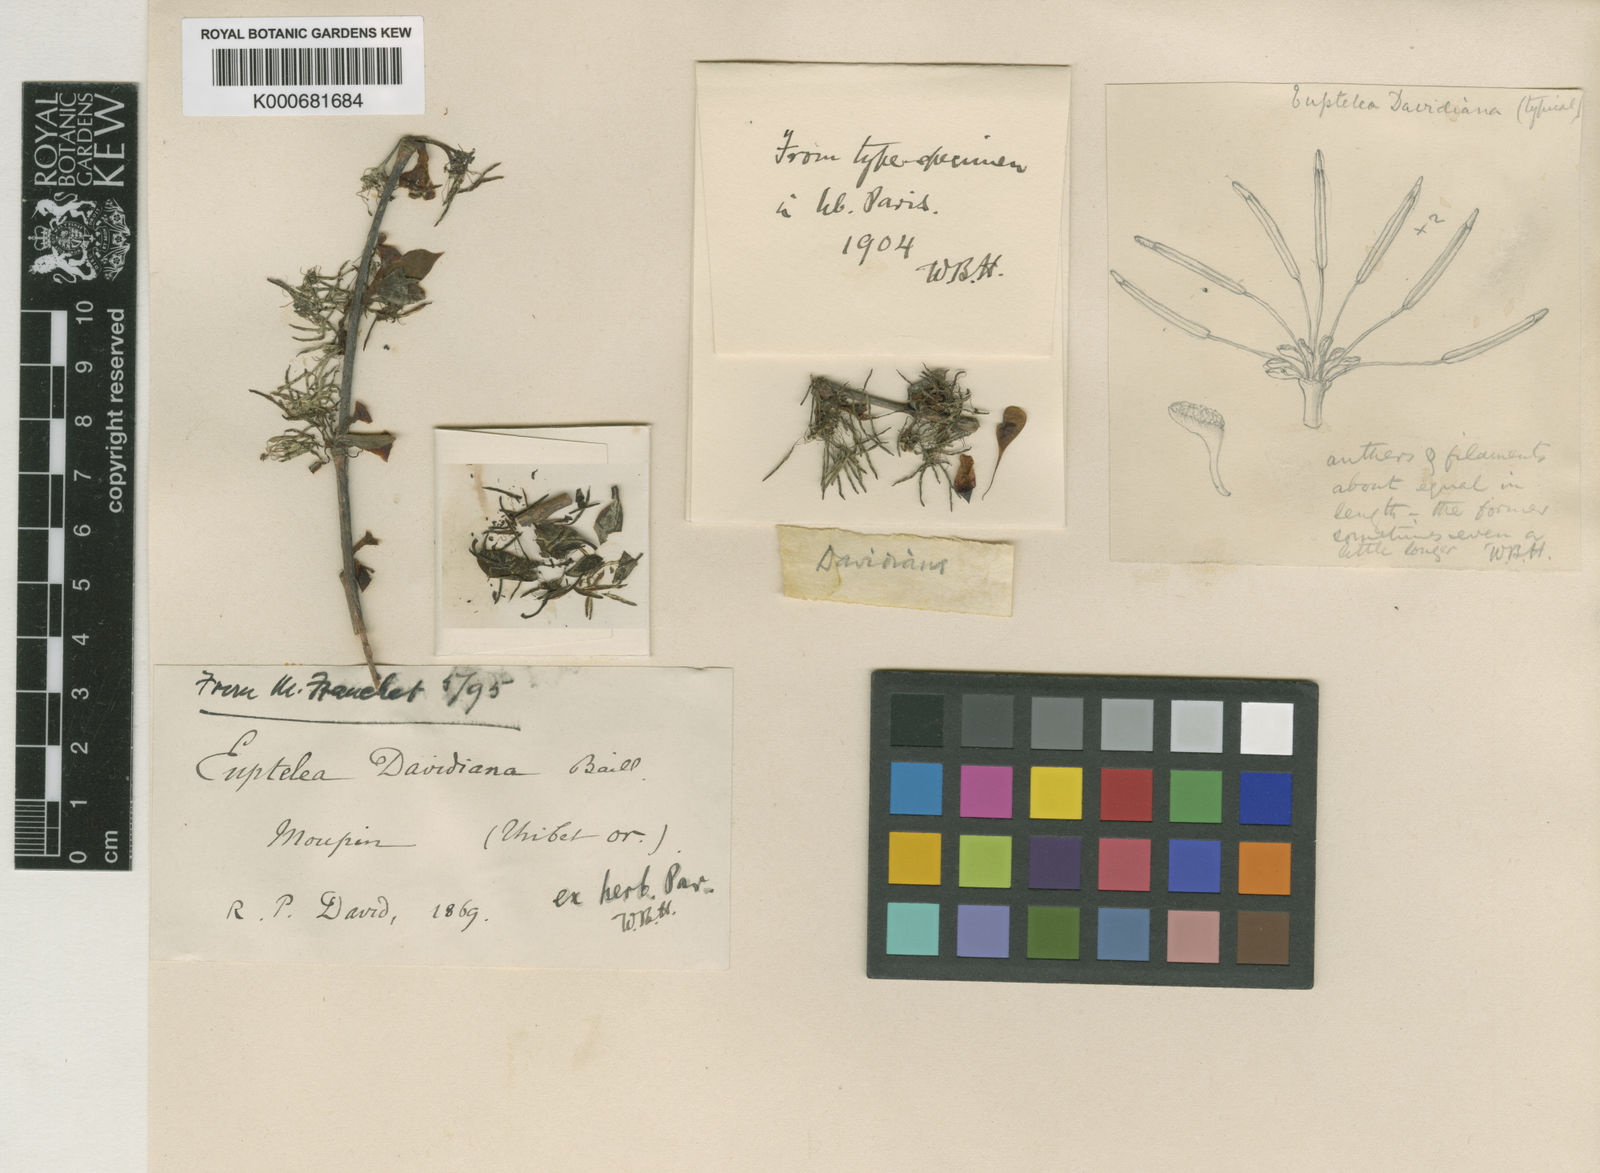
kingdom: Plantae
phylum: Tracheophyta
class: Magnoliopsida
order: Ranunculales
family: Eupteleaceae
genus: Euptelea
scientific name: Euptelea pleiosperma
